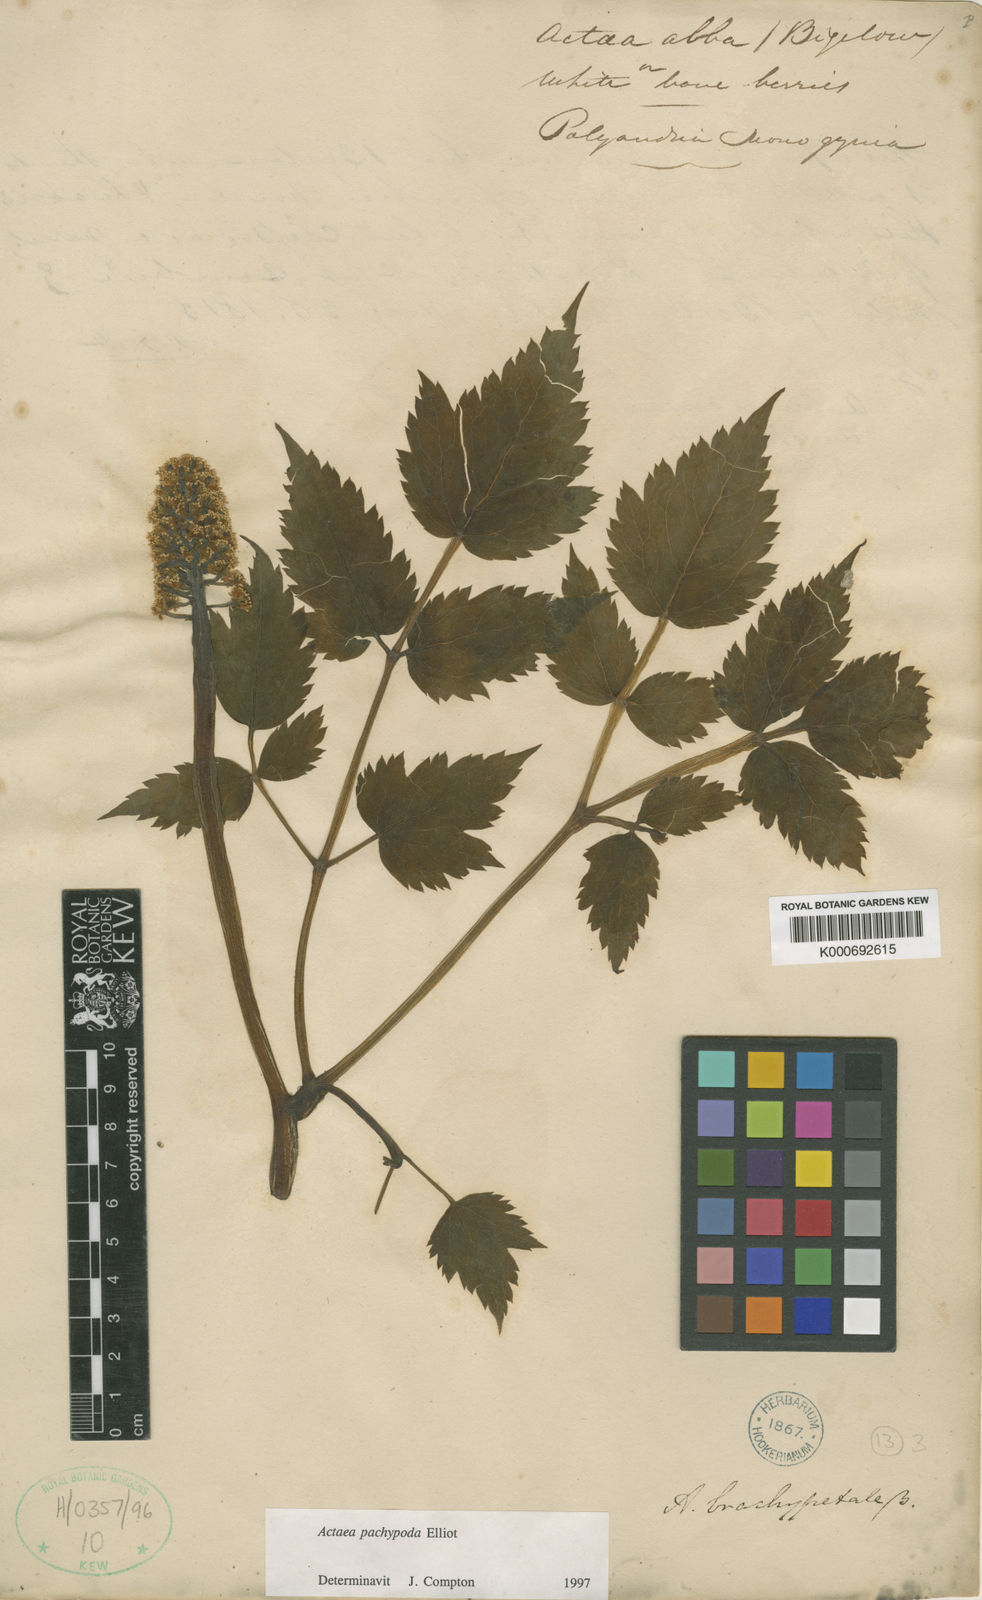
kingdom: Plantae
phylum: Tracheophyta
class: Magnoliopsida
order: Ranunculales
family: Ranunculaceae
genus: Actaea
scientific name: Actaea rubra
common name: Red baneberry
